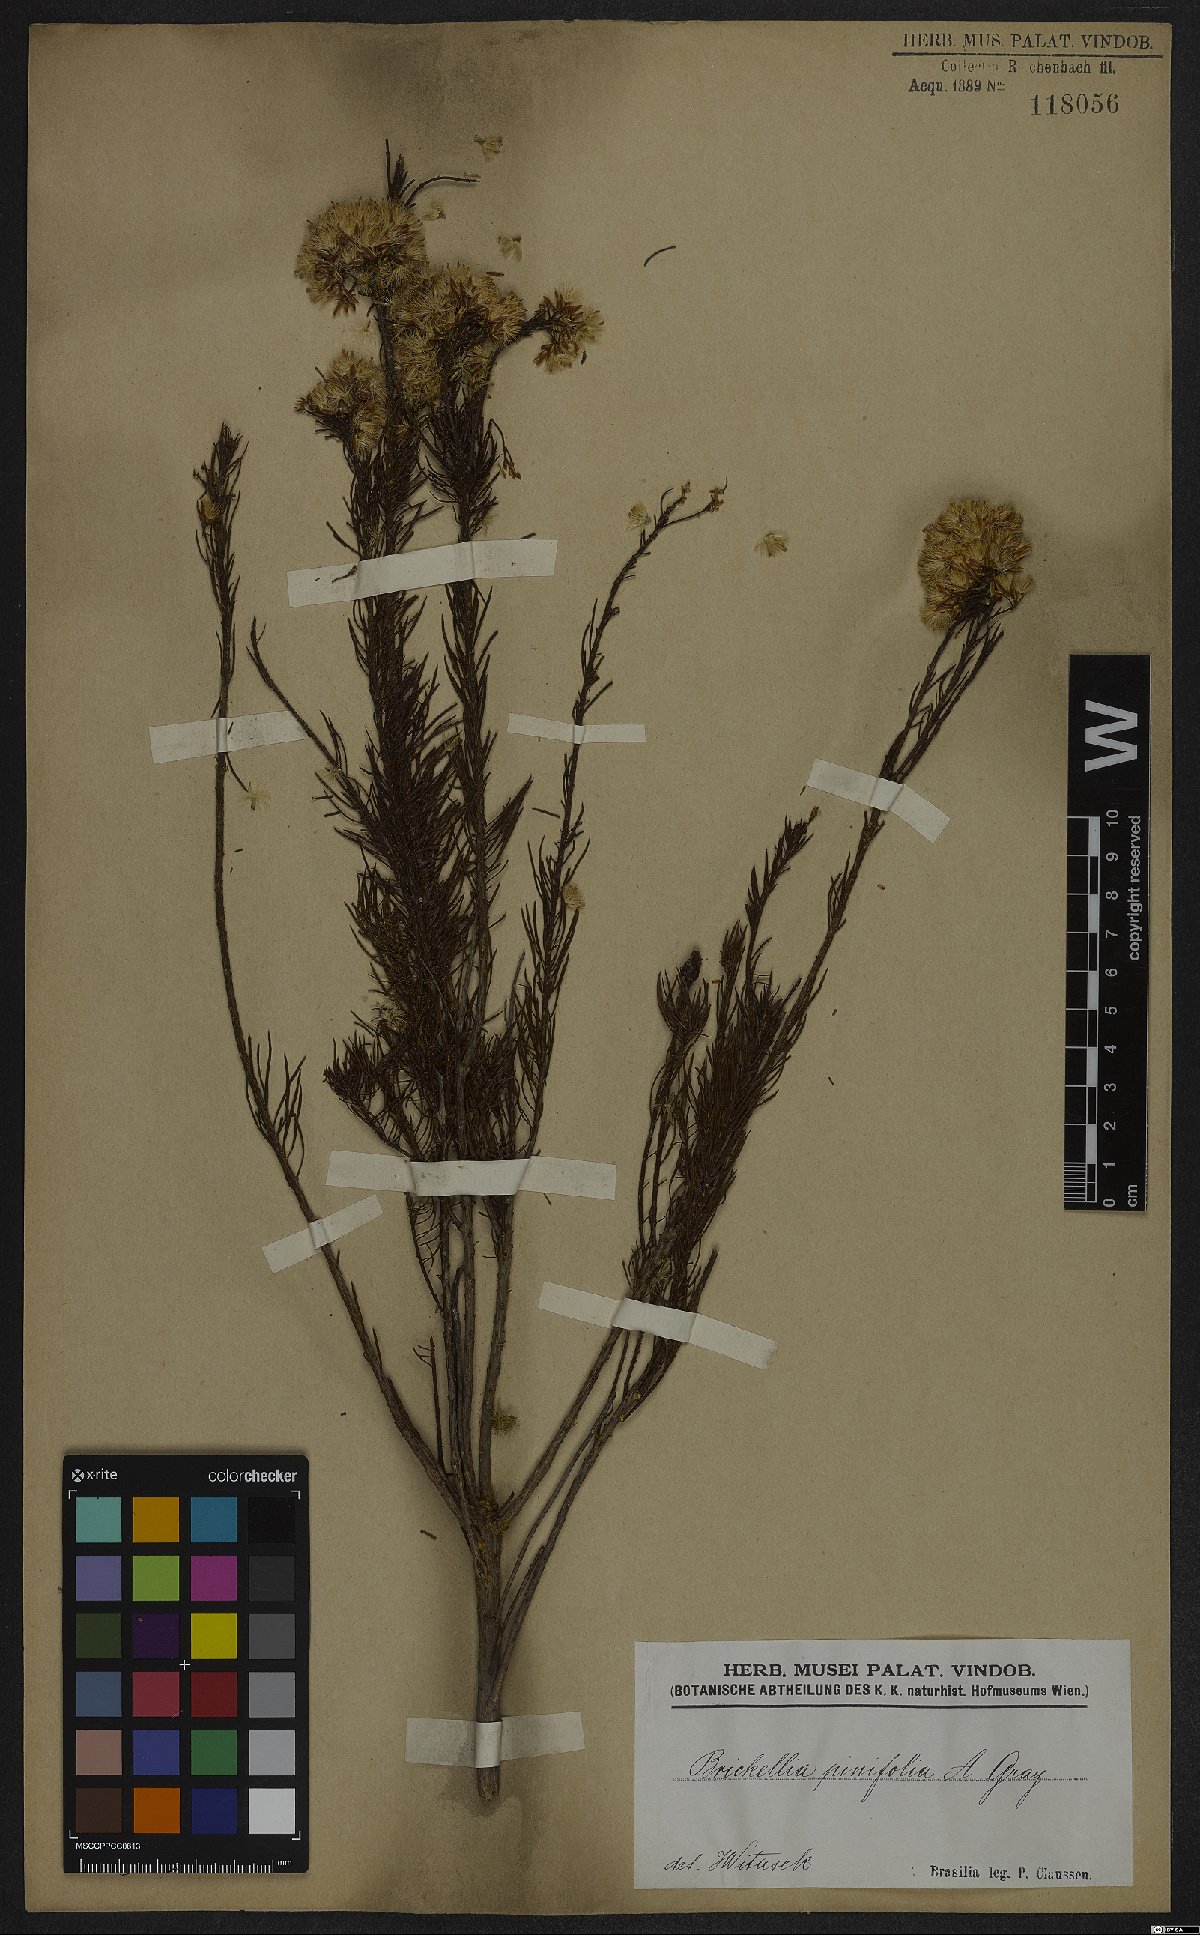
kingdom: Plantae
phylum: Tracheophyta
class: Magnoliopsida
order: Asterales
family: Asteraceae
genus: Pseudobrickellia
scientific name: Pseudobrickellia brasiliensis
